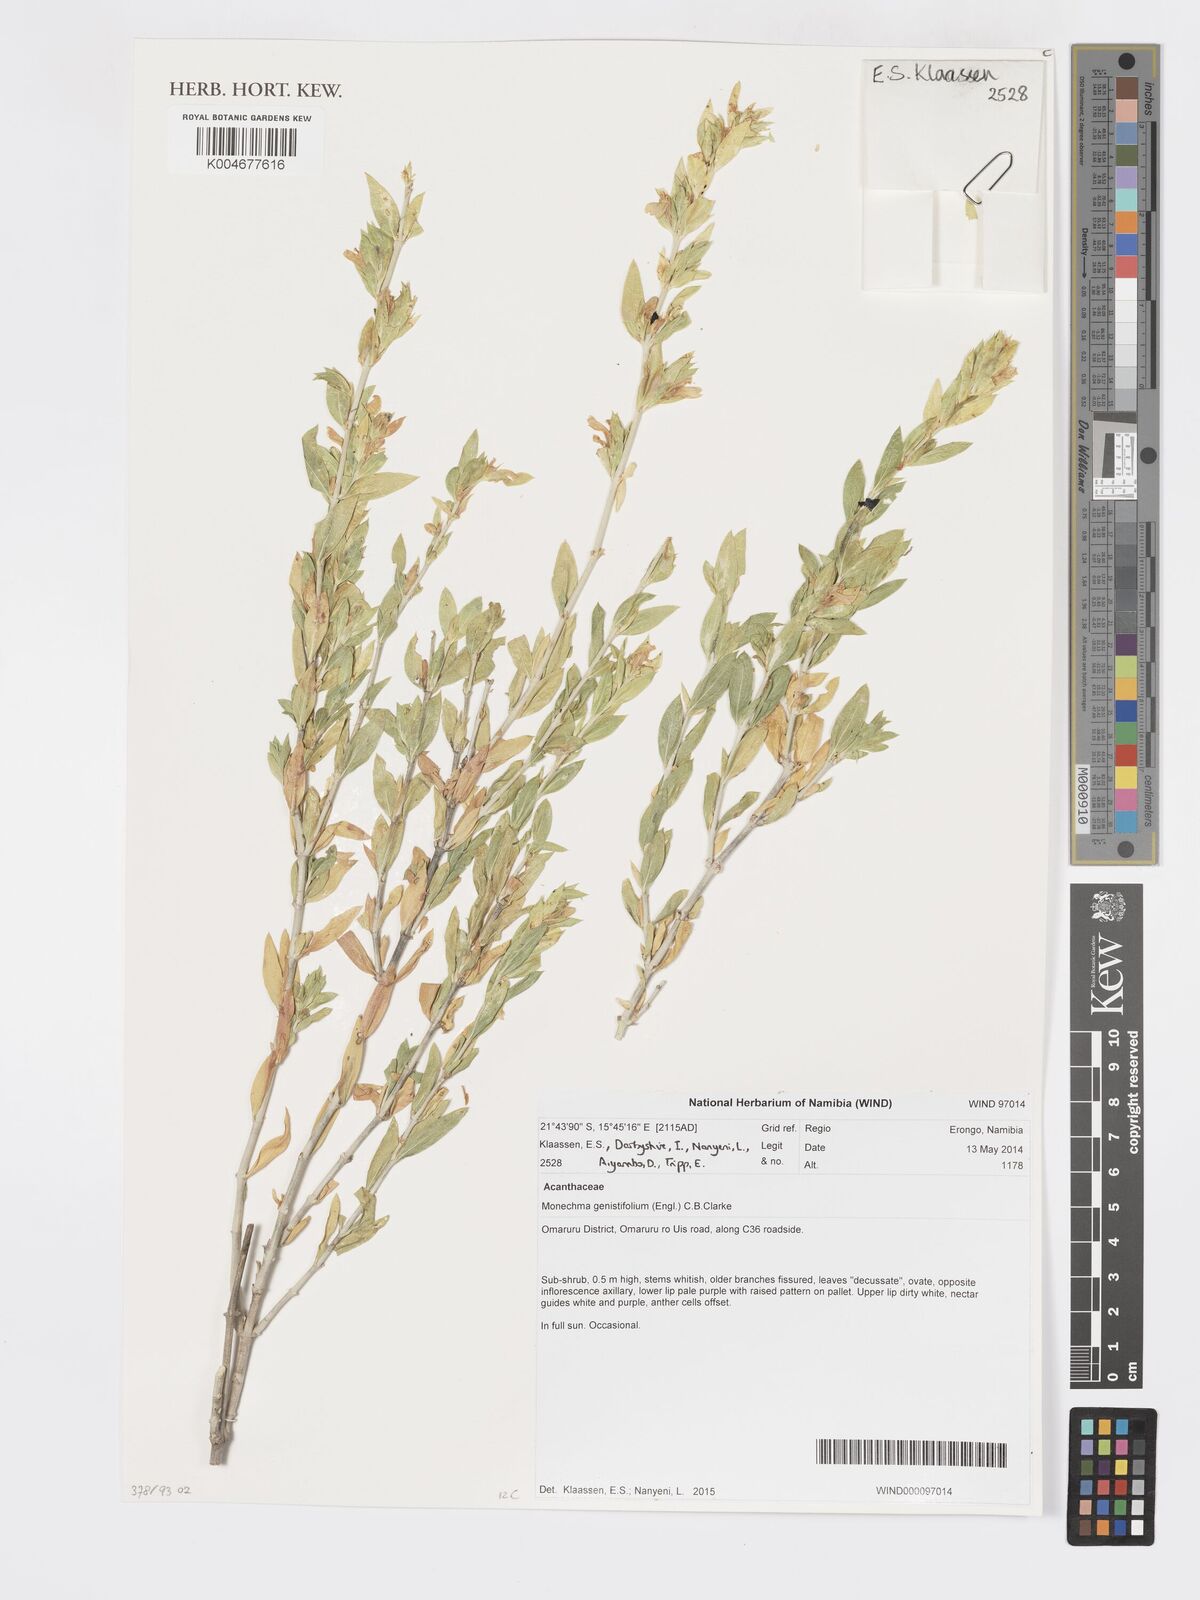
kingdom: Plantae
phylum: Tracheophyta
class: Magnoliopsida
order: Lamiales
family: Acanthaceae
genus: Pogonospermum
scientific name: Pogonospermum
